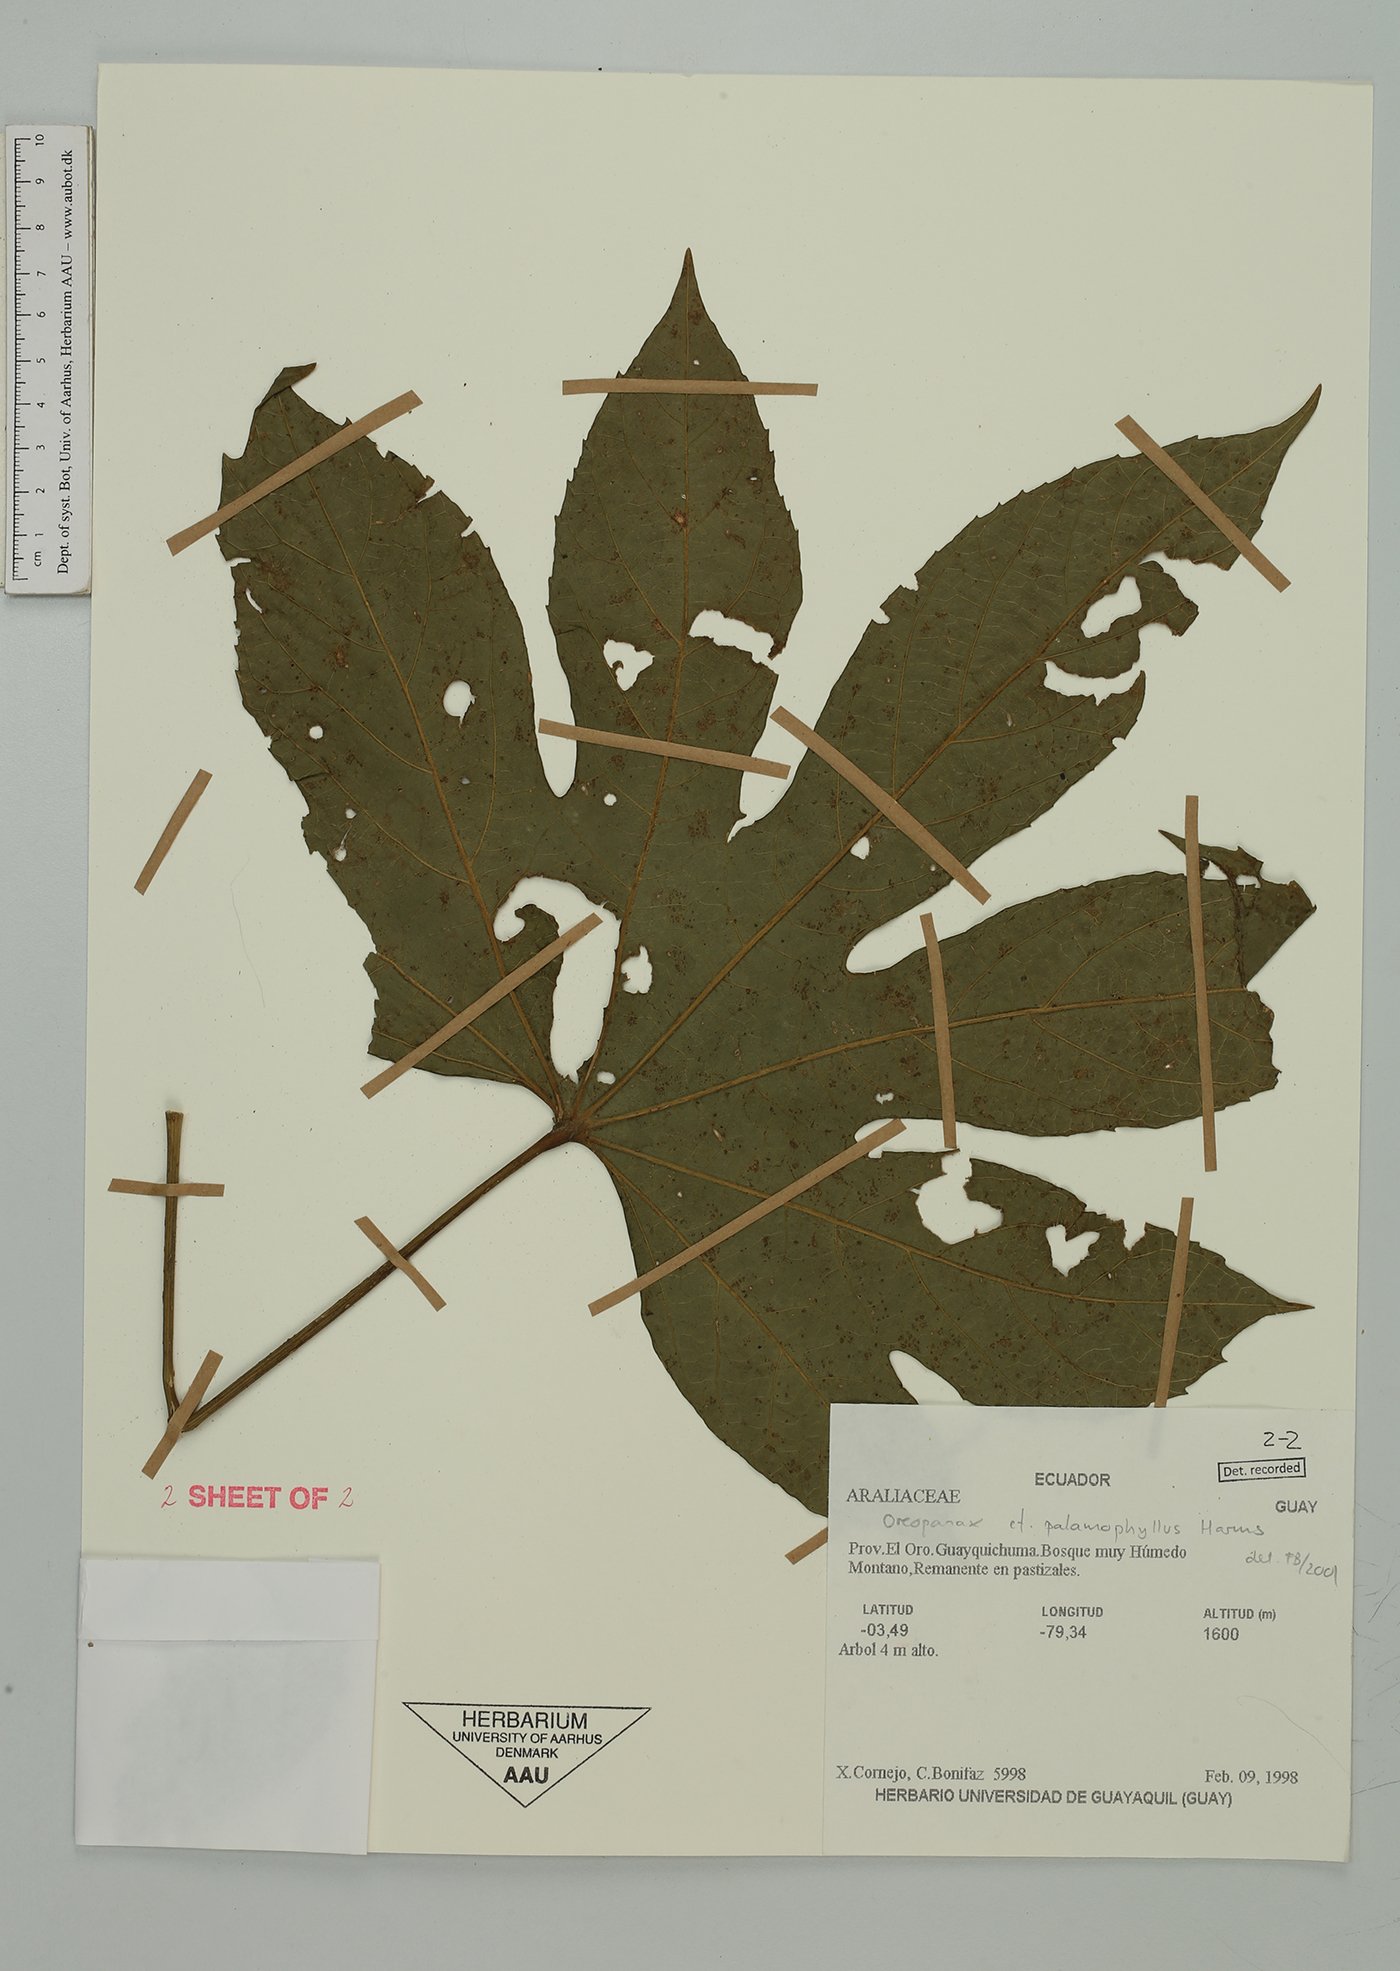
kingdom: Plantae
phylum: Tracheophyta
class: Magnoliopsida
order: Apiales
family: Araliaceae
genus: Oreopanax
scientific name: Oreopanax palamophyllus
